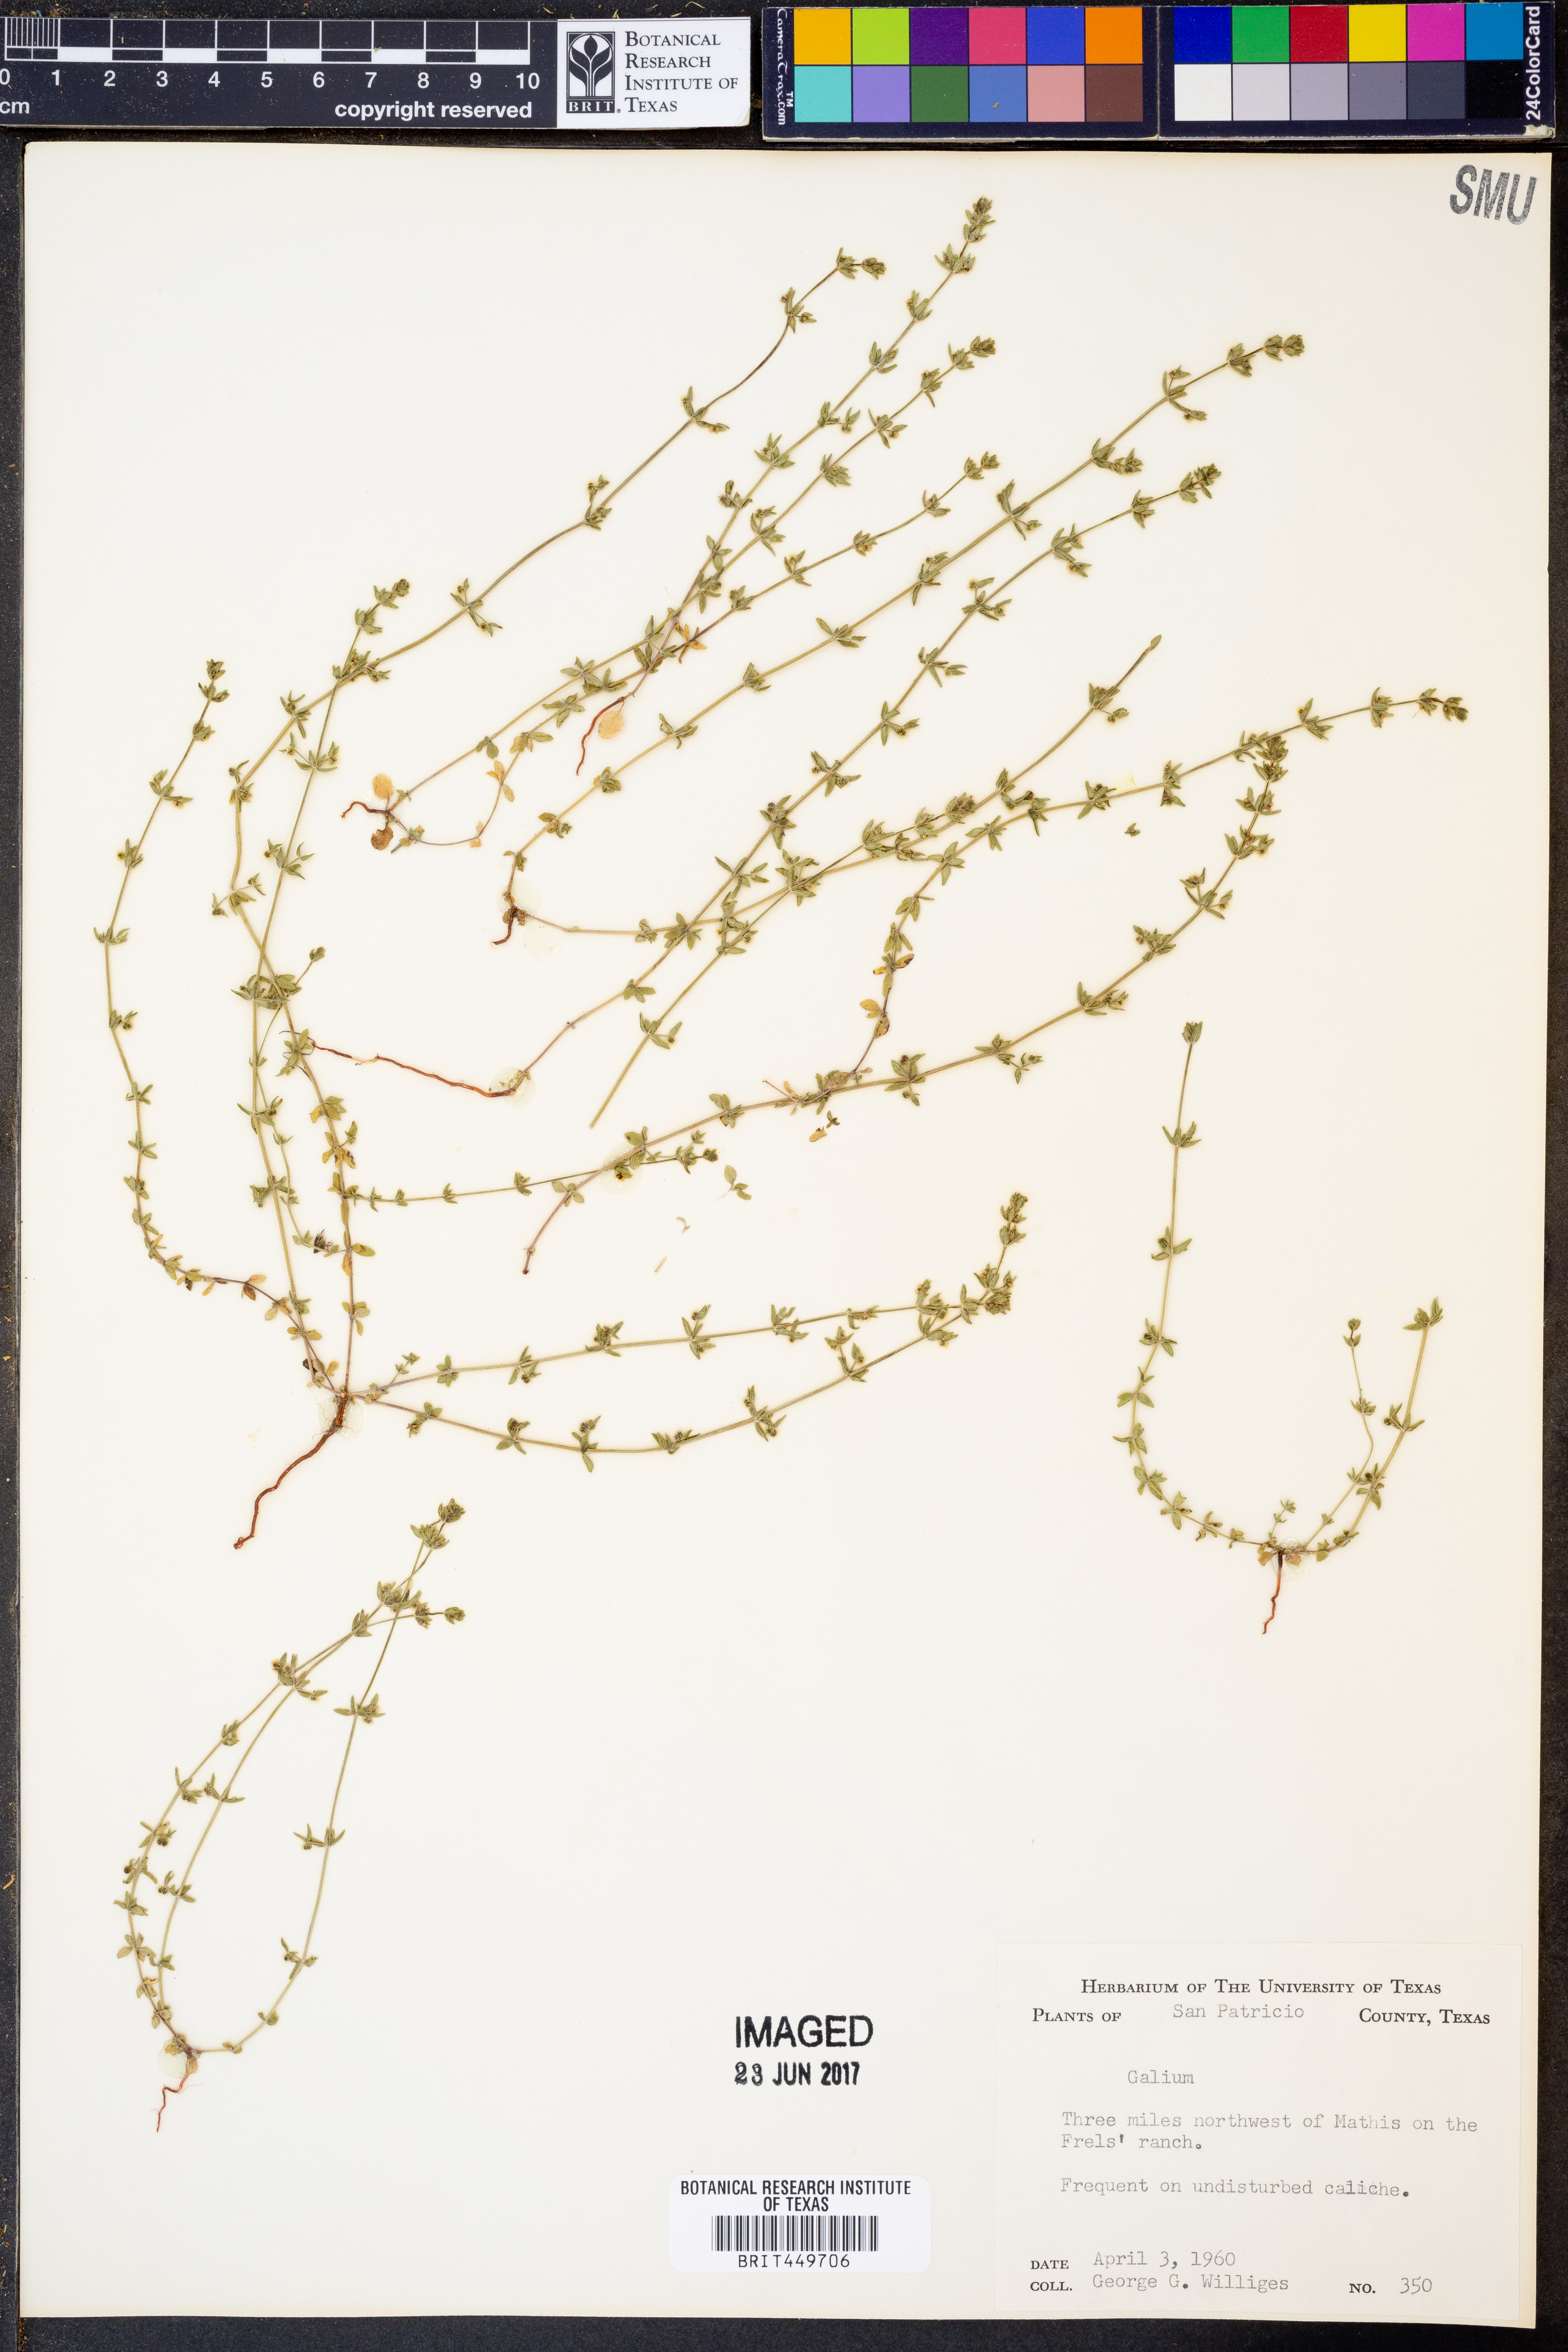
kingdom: Plantae
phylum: Tracheophyta
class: Magnoliopsida
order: Gentianales
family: Rubiaceae
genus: Galium
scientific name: Galium
